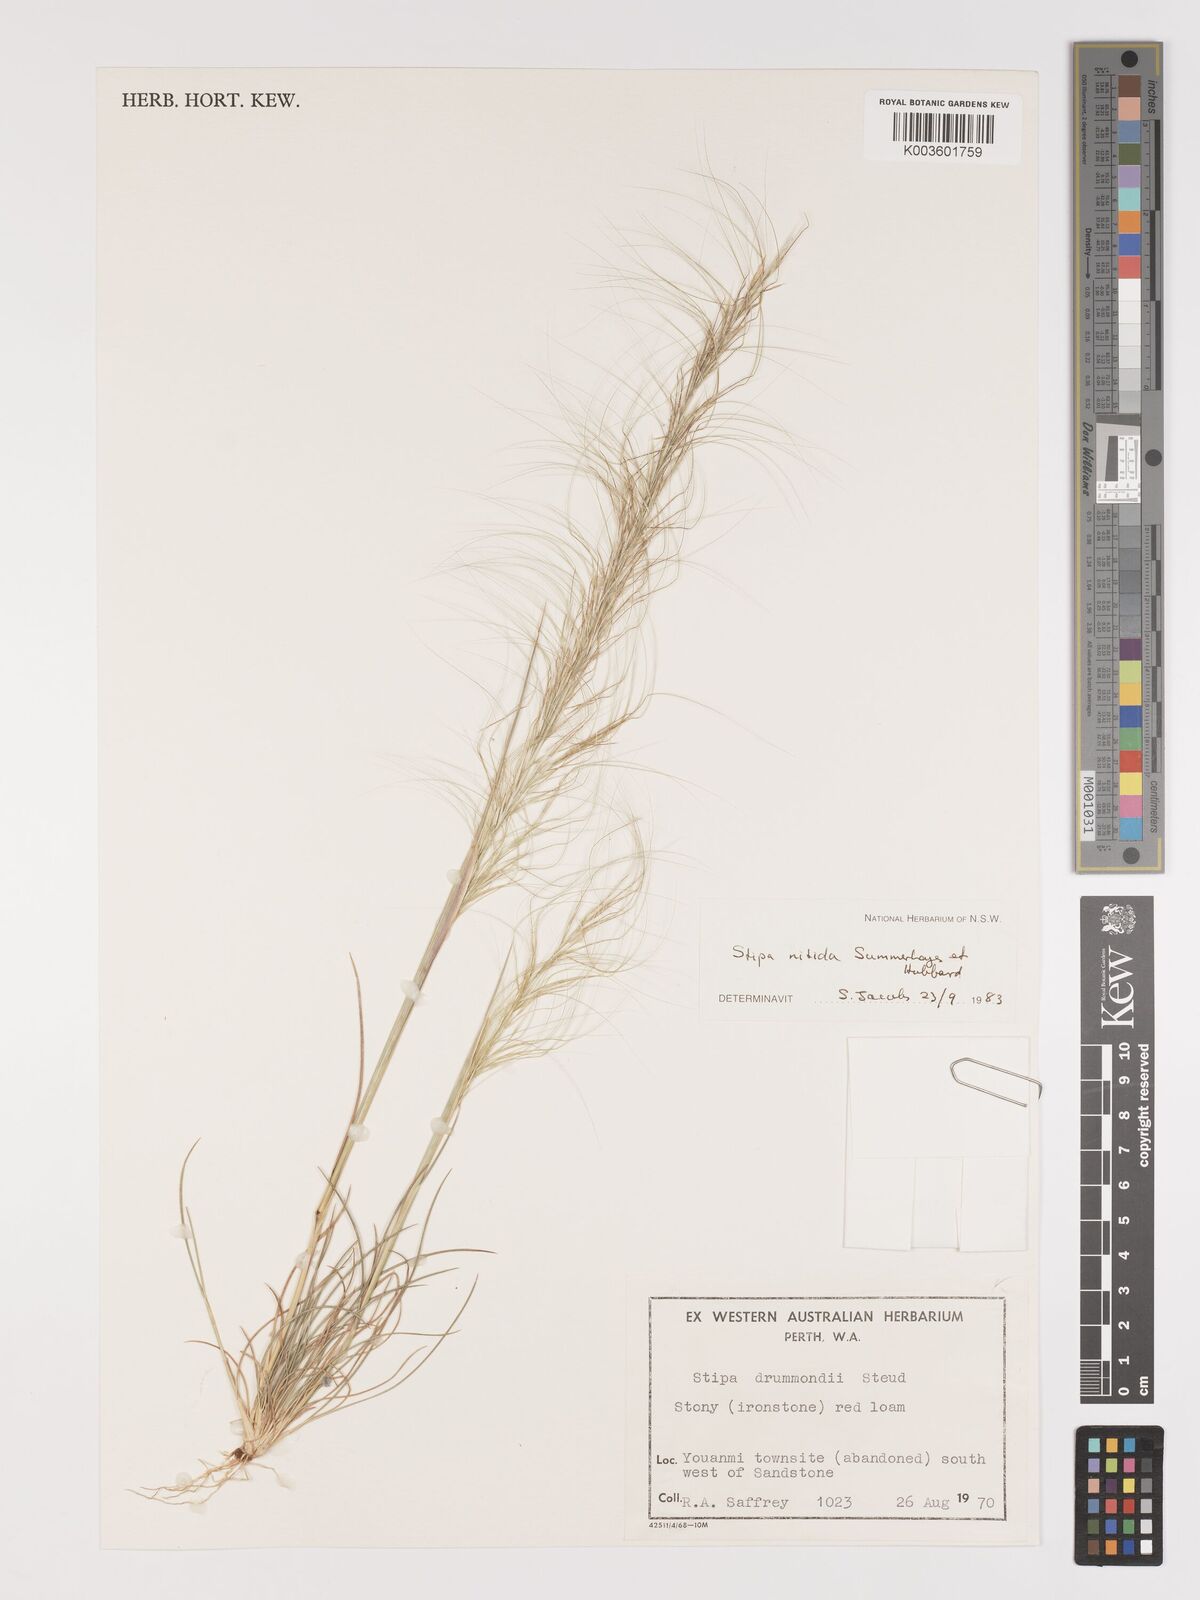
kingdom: Plantae
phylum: Tracheophyta
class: Liliopsida
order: Poales
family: Poaceae
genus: Austrostipa
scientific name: Austrostipa nitida
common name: Balcarra grass
